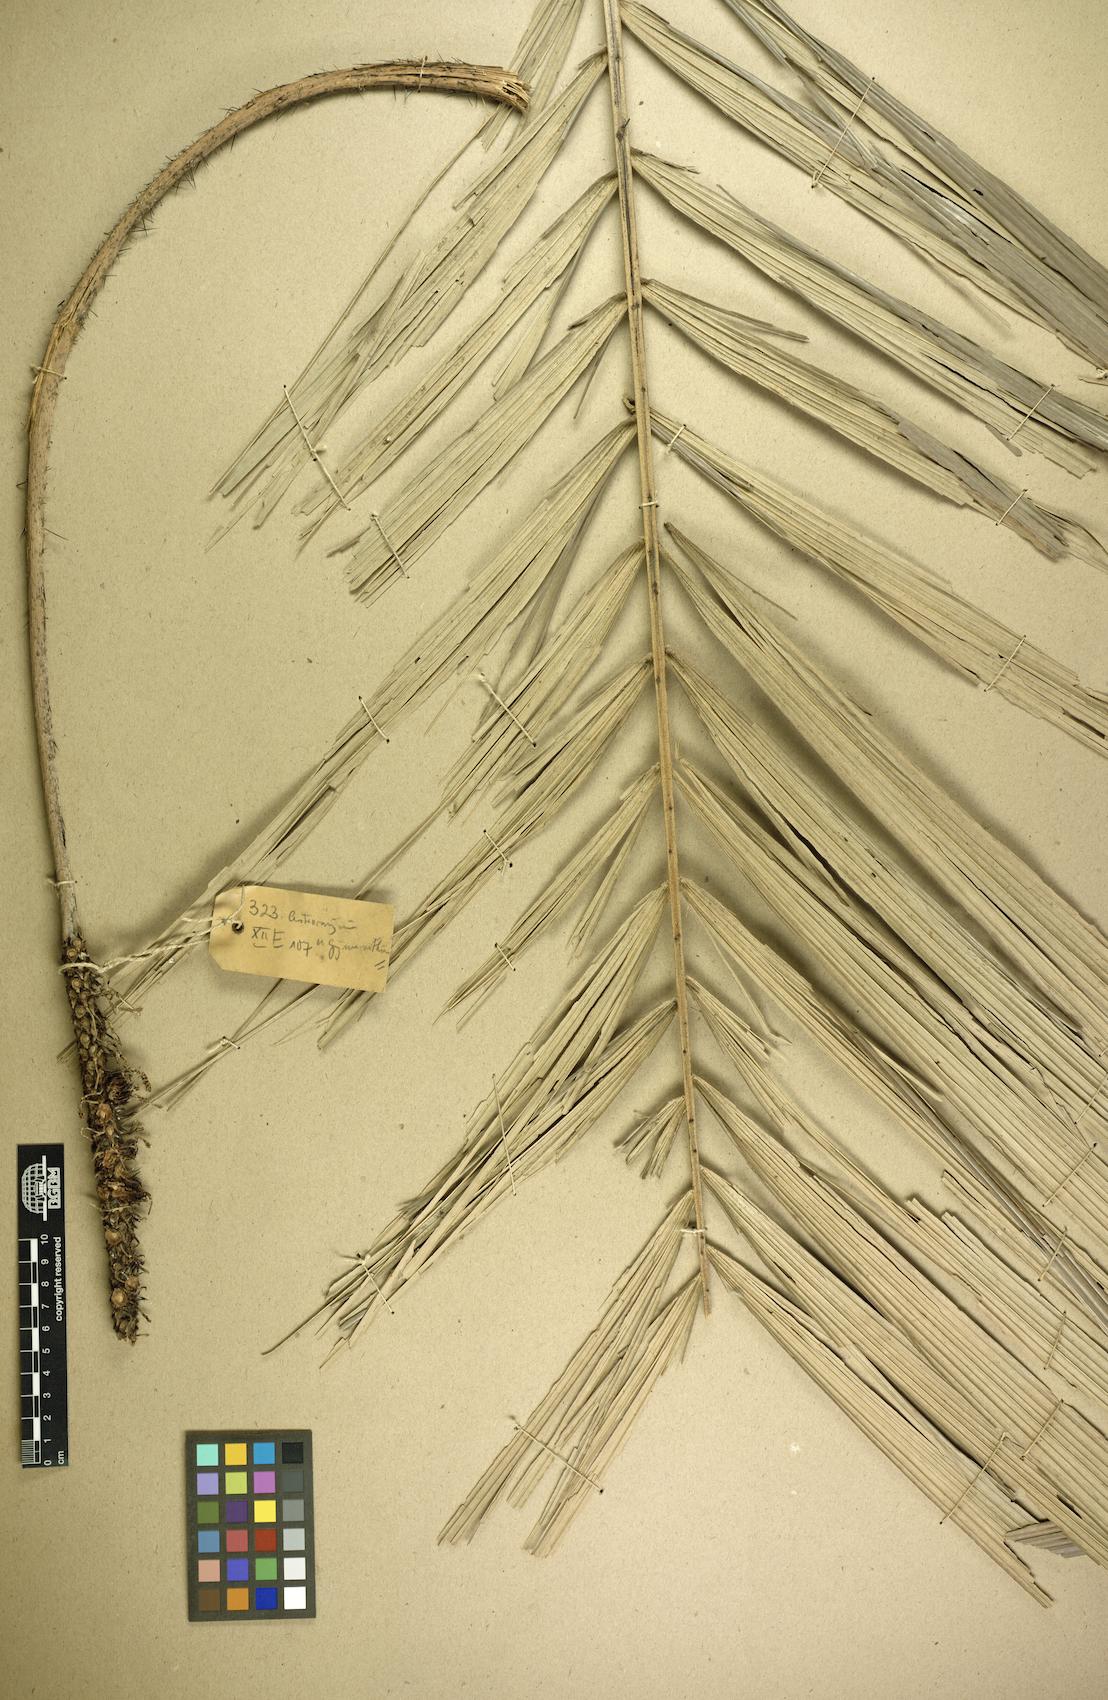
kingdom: Plantae
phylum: Tracheophyta
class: Liliopsida
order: Arecales
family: Arecaceae
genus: Astrocaryum
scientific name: Astrocaryum aculeatum
